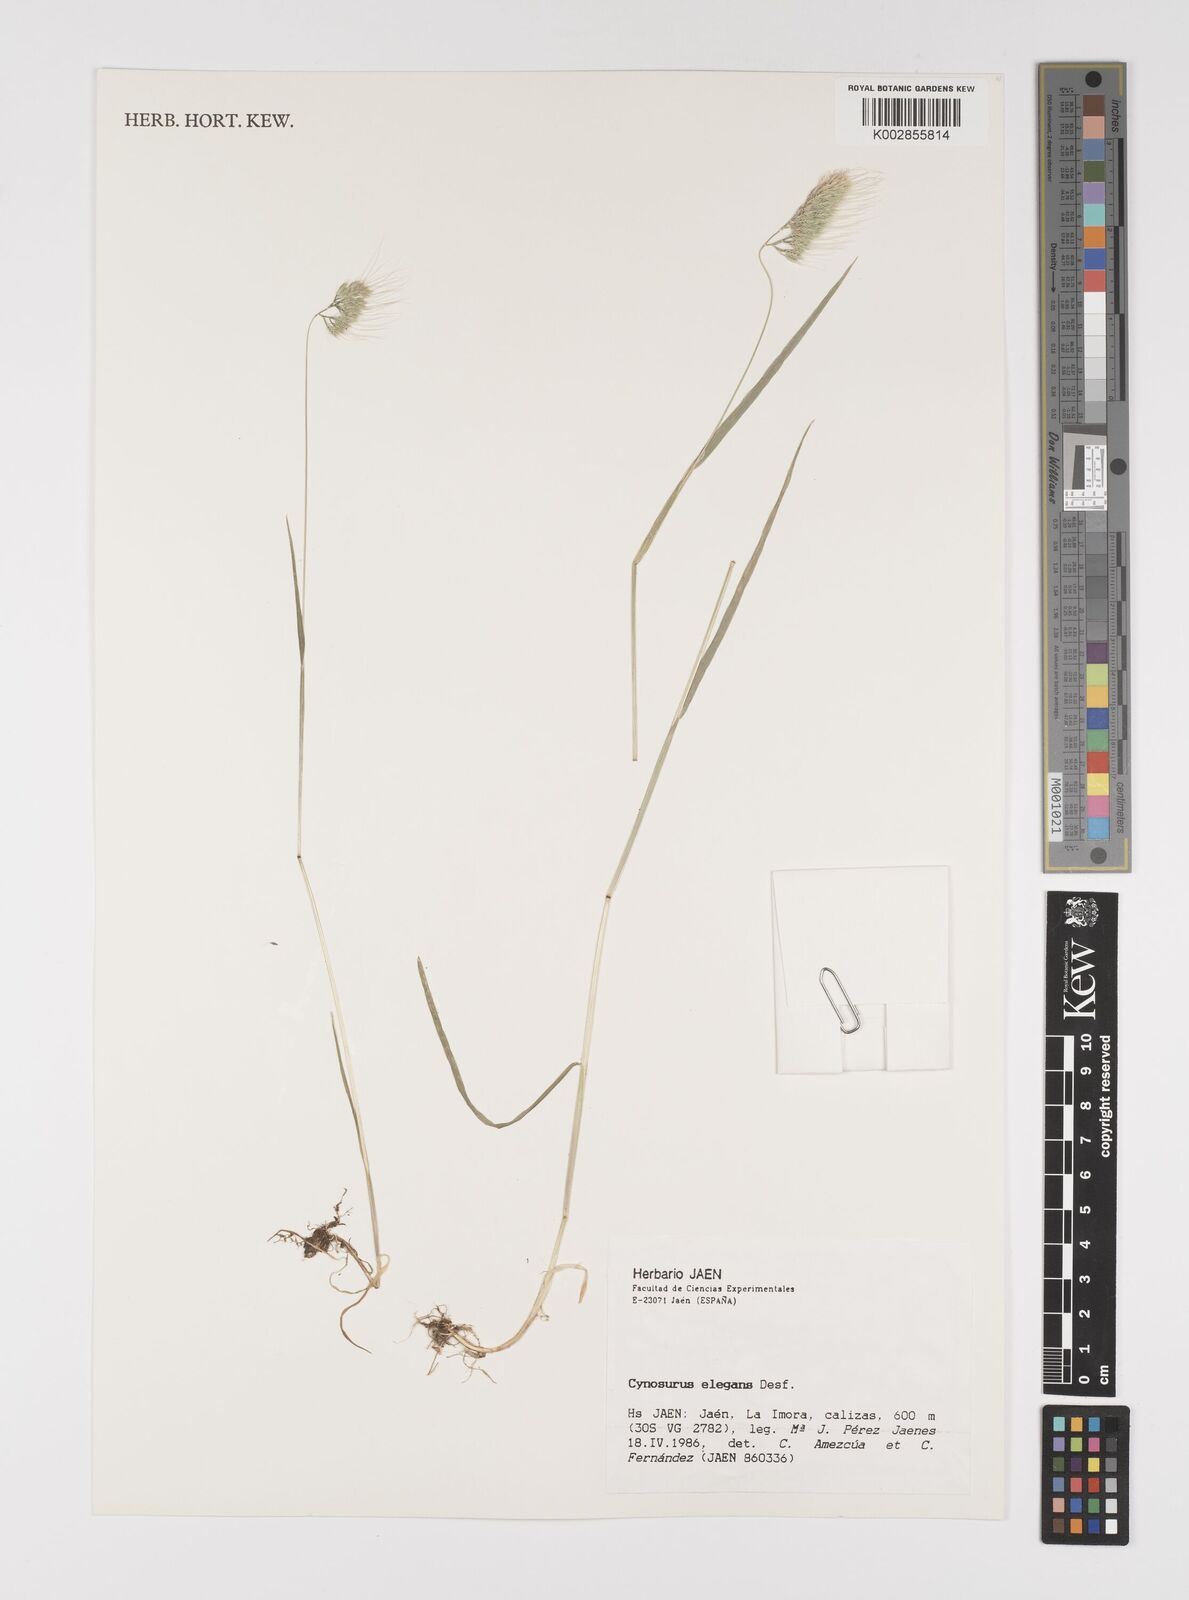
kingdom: Plantae
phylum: Tracheophyta
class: Liliopsida
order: Poales
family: Poaceae
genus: Cynosurus
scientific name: Cynosurus elegans
